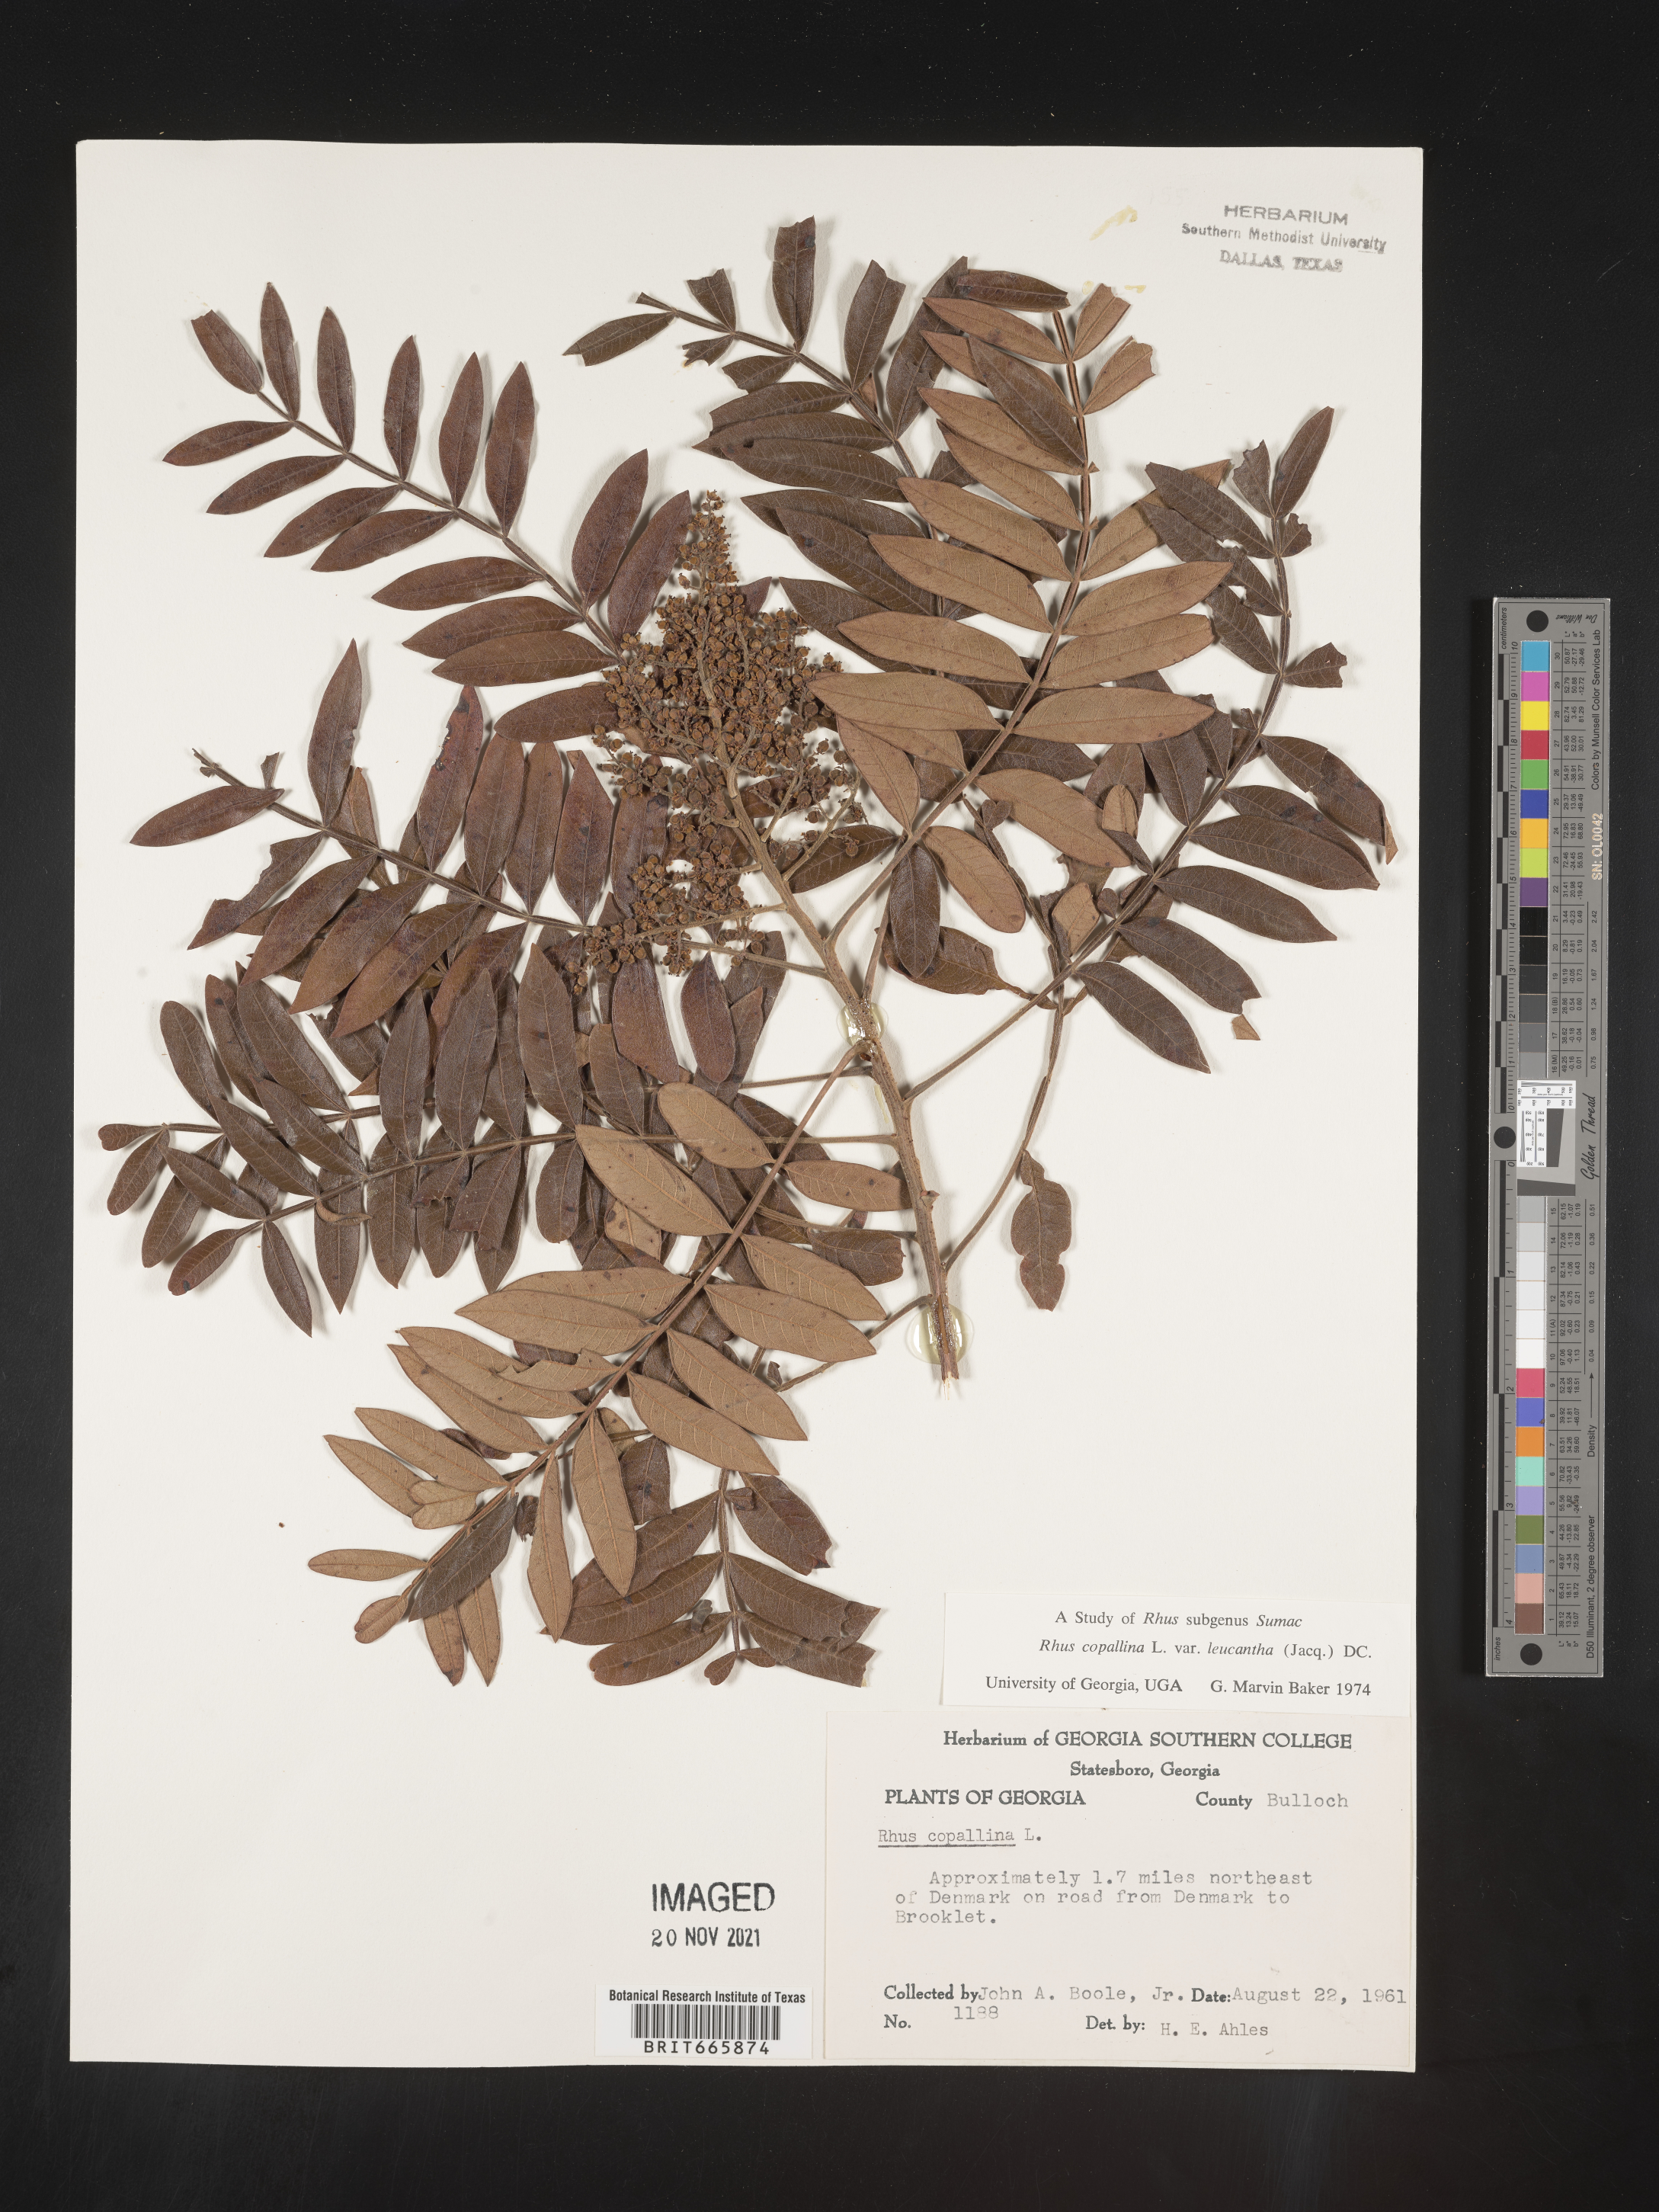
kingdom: Plantae
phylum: Tracheophyta
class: Magnoliopsida
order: Sapindales
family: Anacardiaceae
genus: Rhus
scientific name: Rhus copallina
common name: Shining sumac
